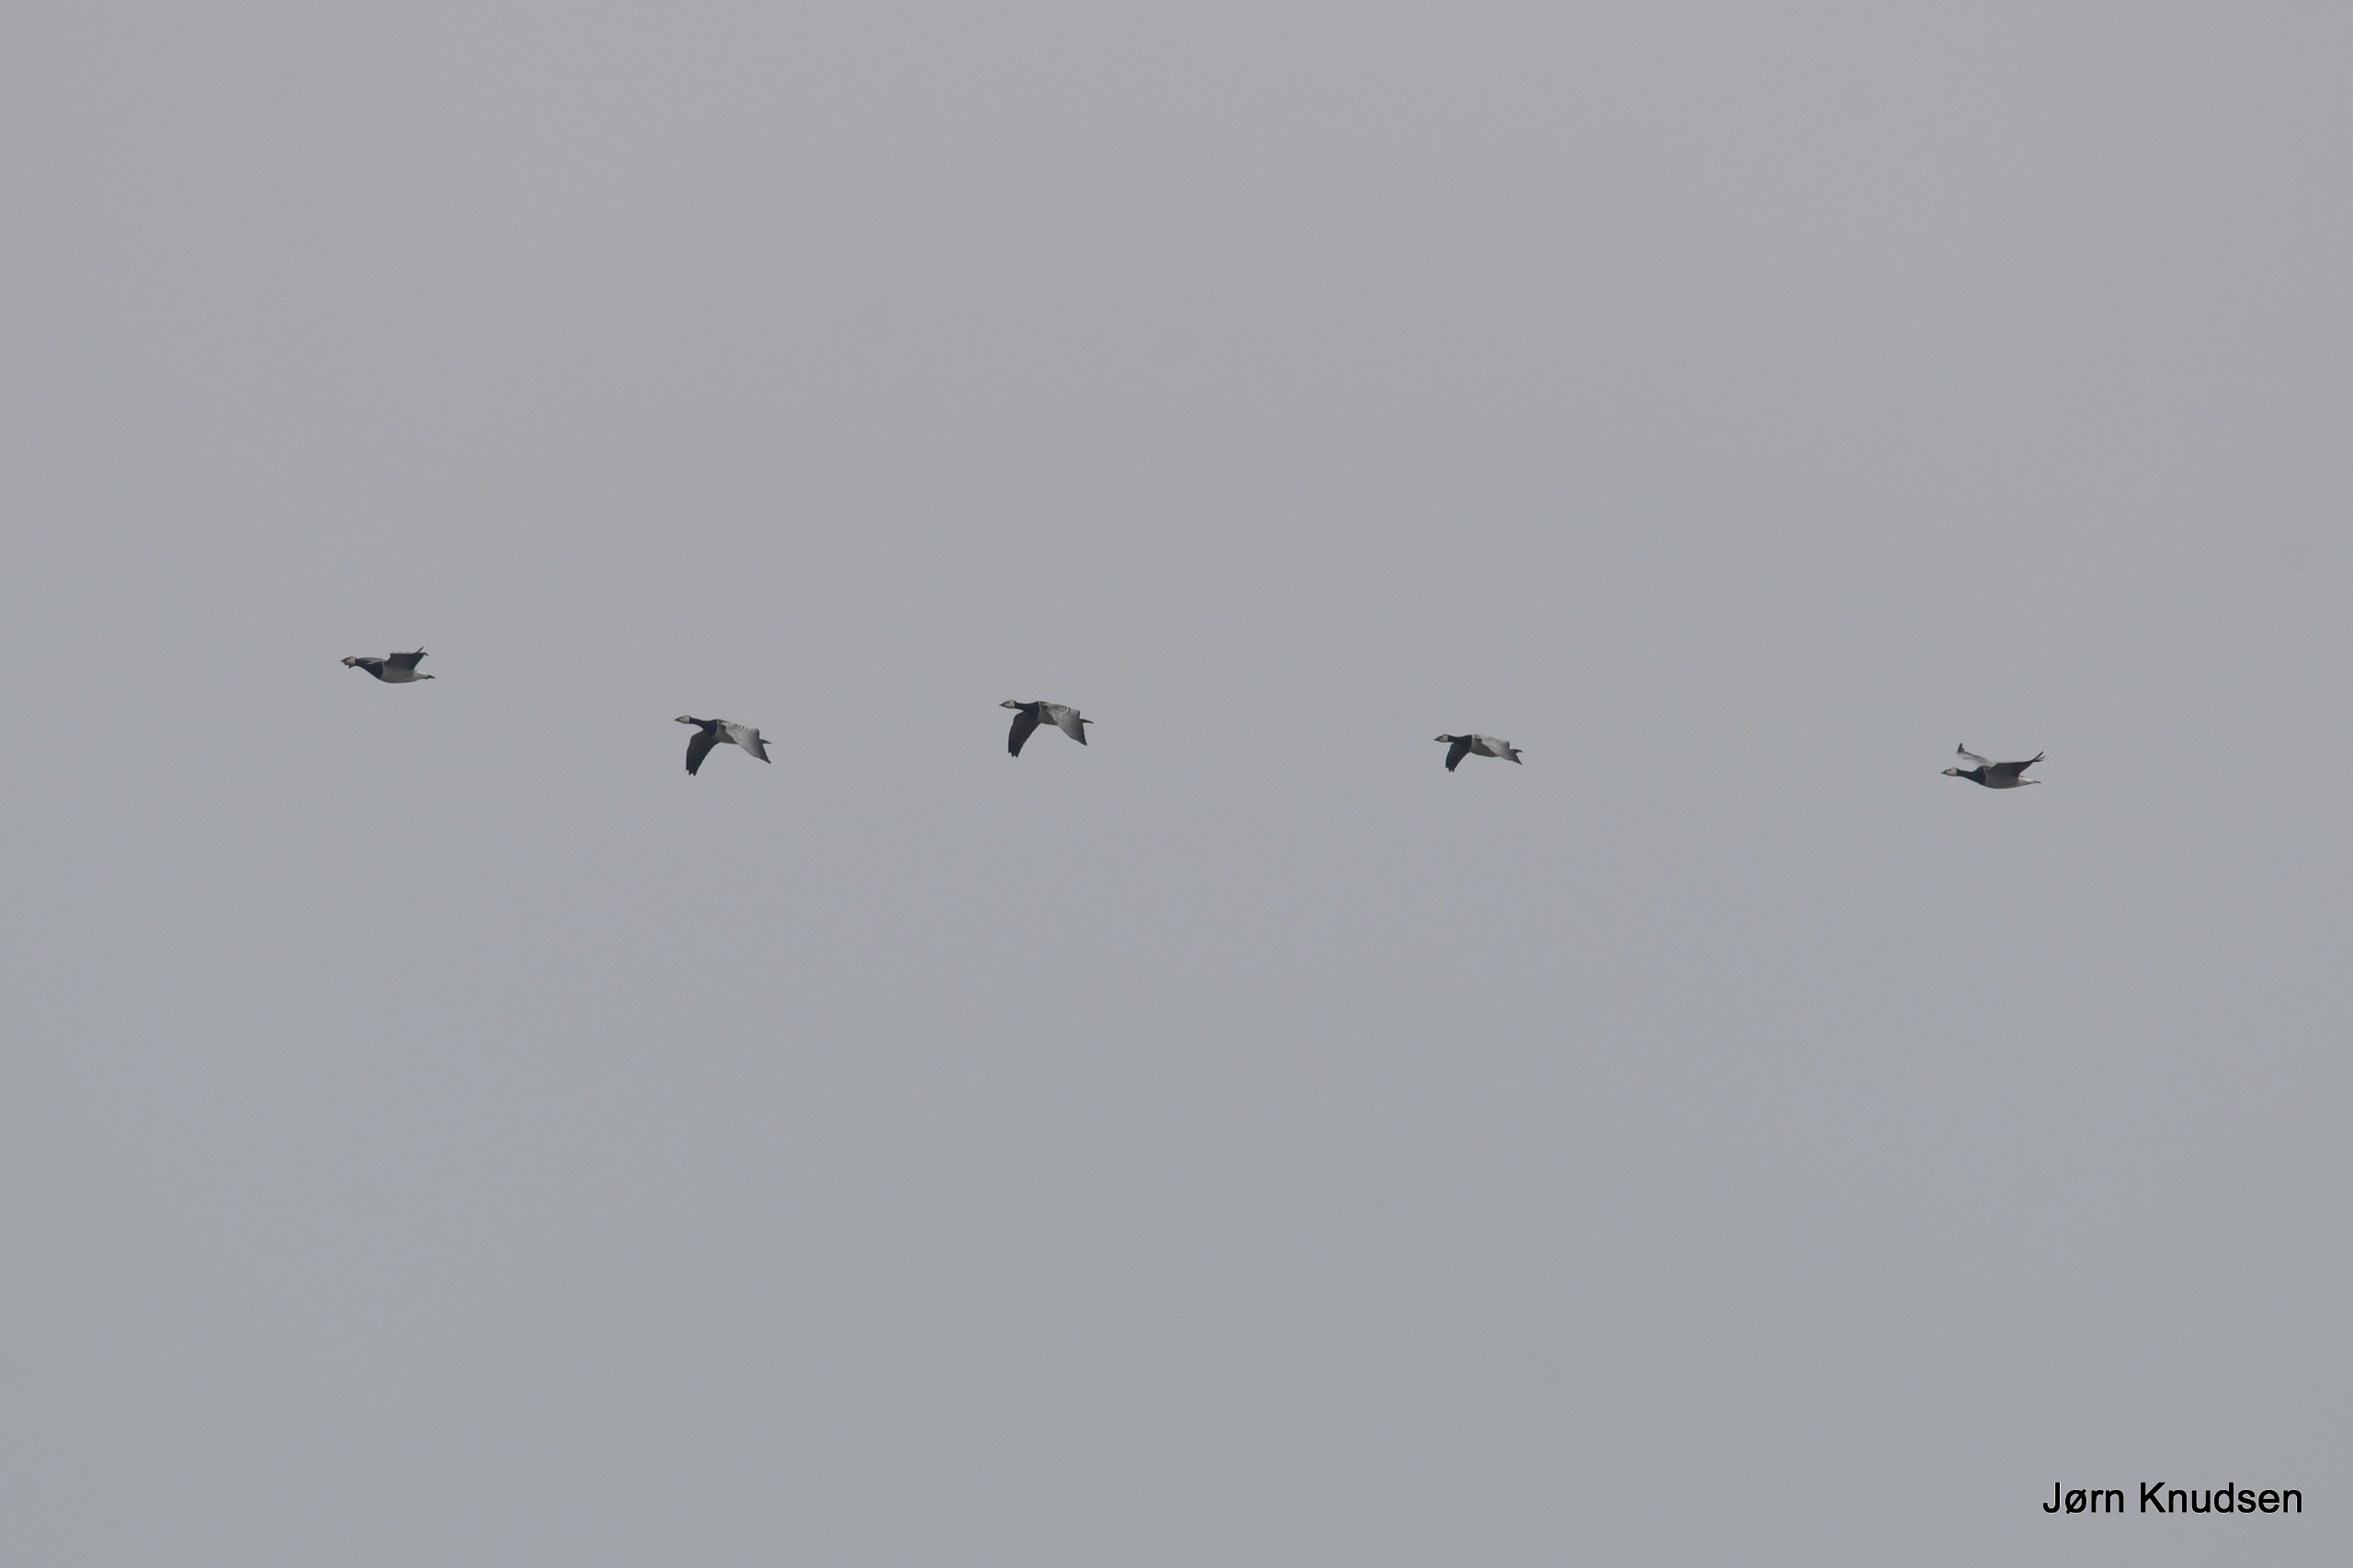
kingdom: Animalia
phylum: Chordata
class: Aves
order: Anseriformes
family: Anatidae
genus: Branta
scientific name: Branta leucopsis
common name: Bramgås
